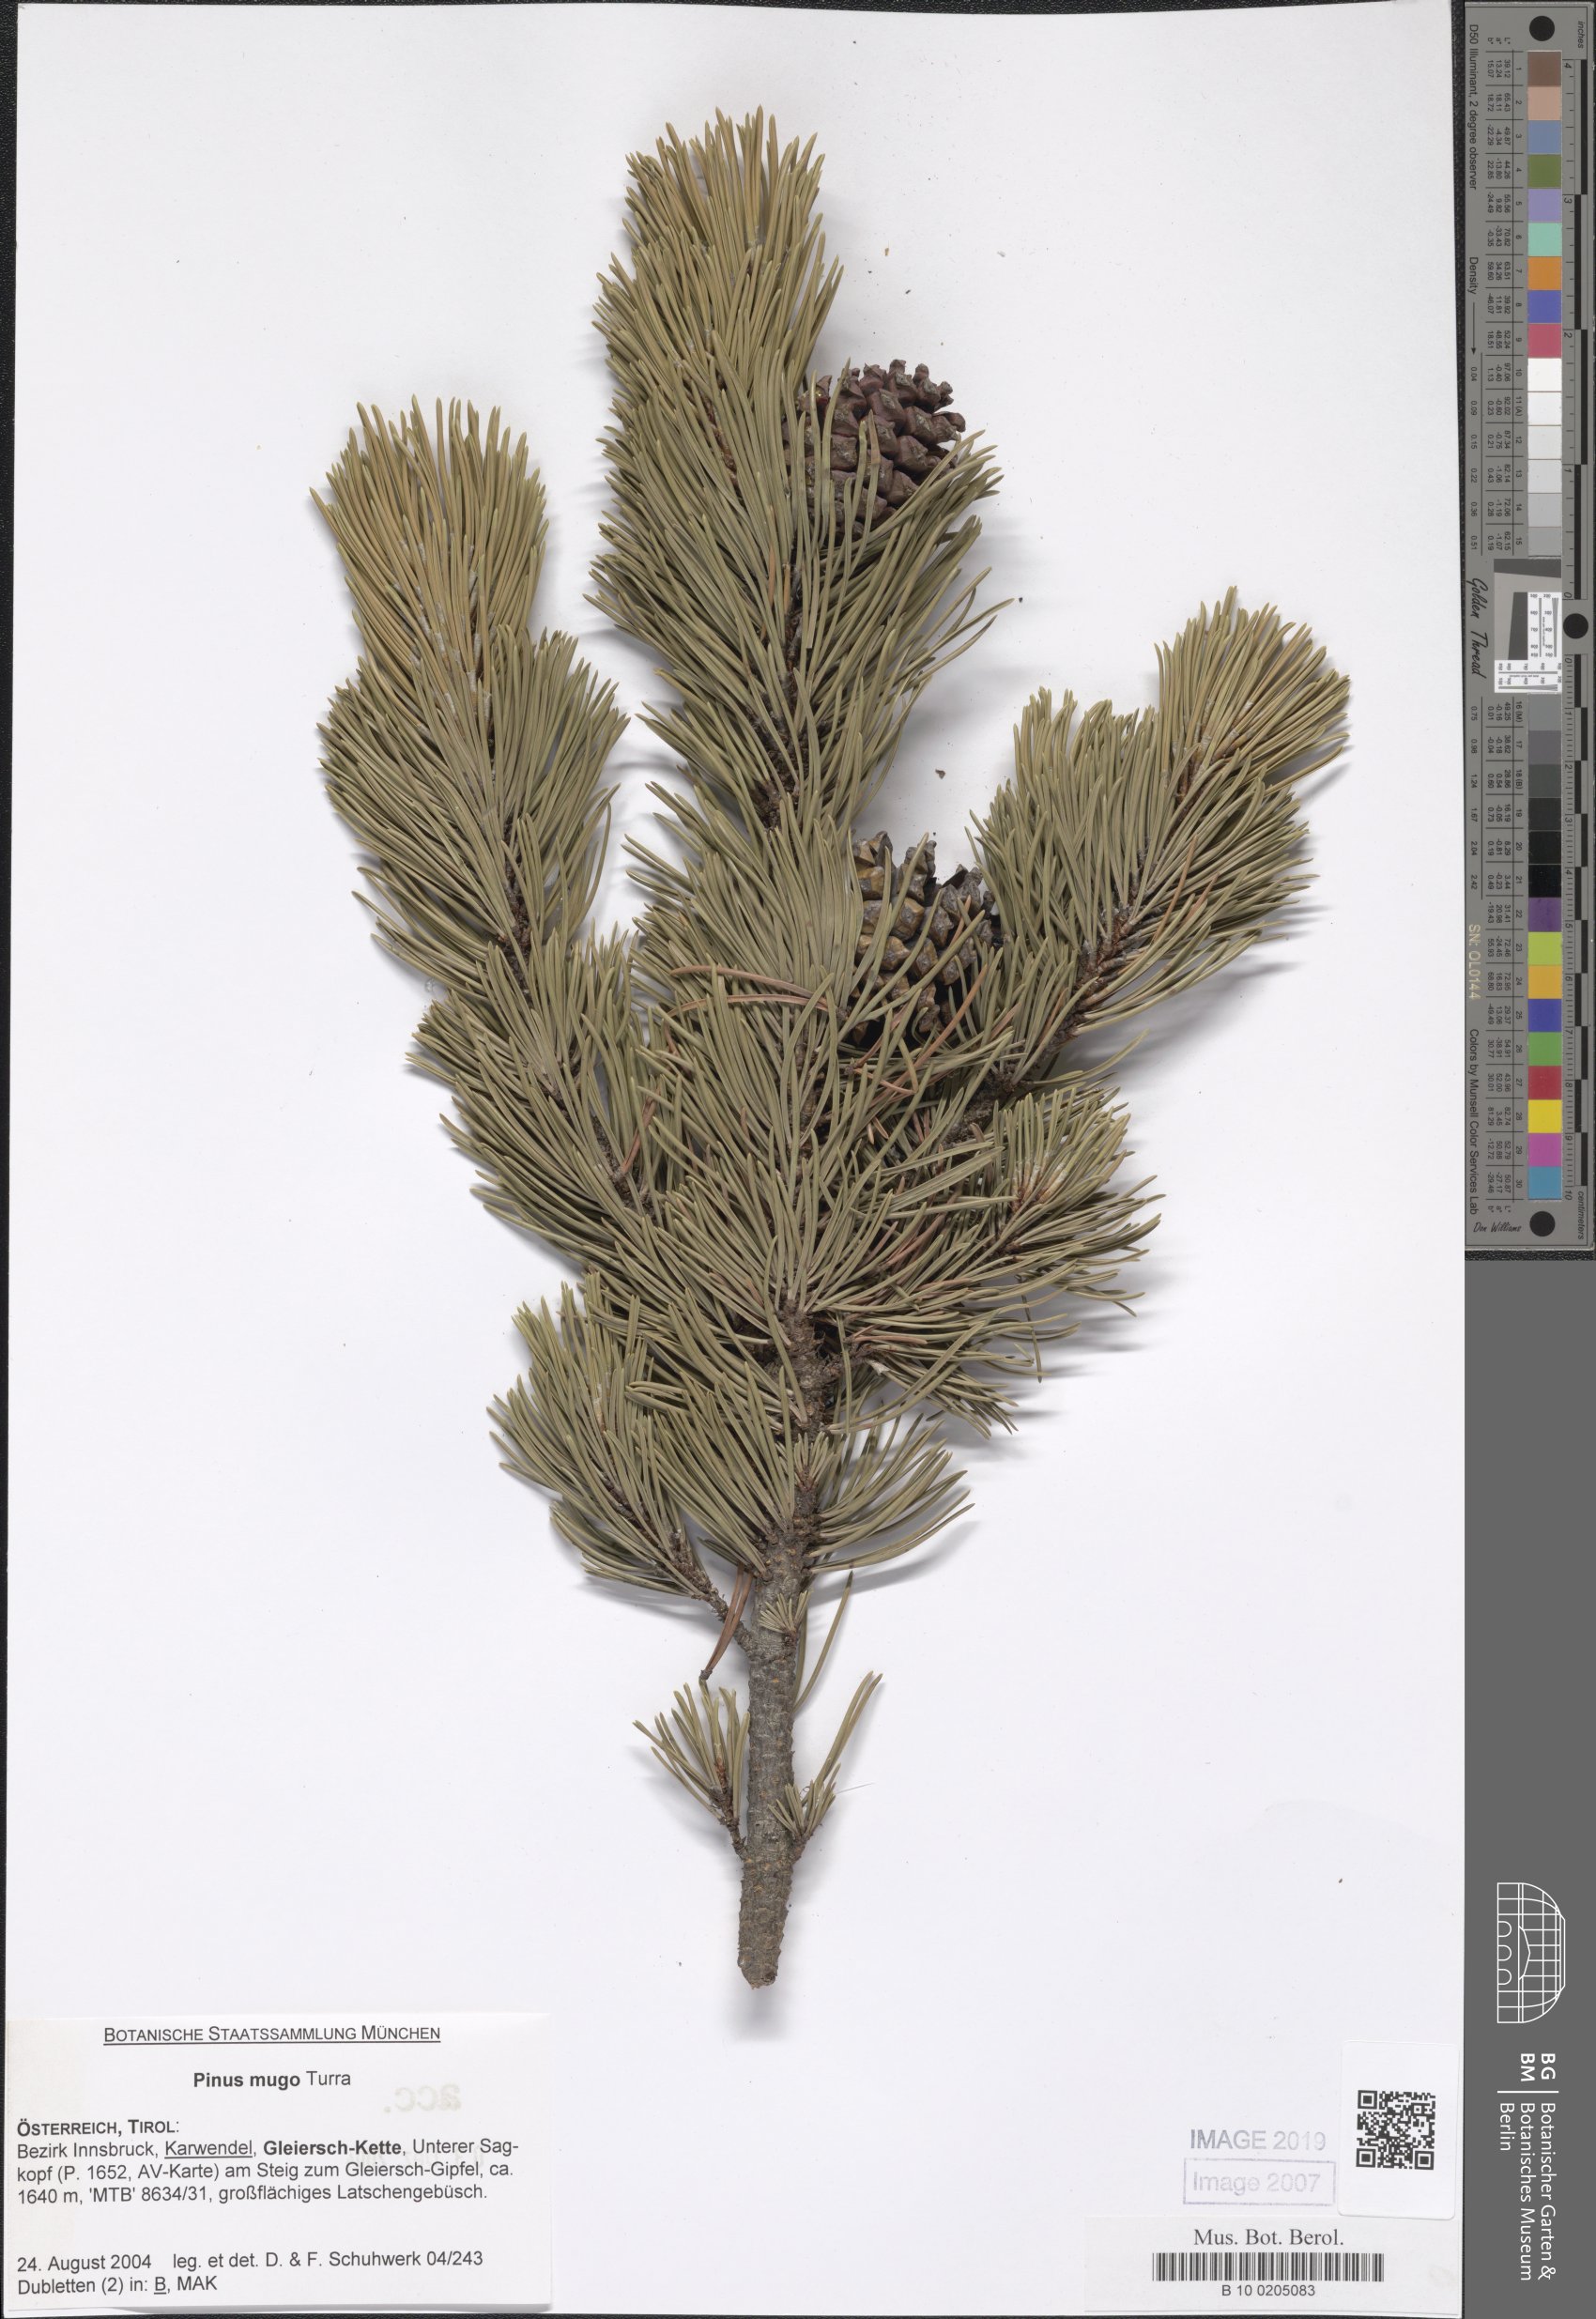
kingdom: Plantae
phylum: Tracheophyta
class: Pinopsida
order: Pinales
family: Pinaceae
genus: Pinus
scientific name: Pinus mugo
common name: Mugo pine
